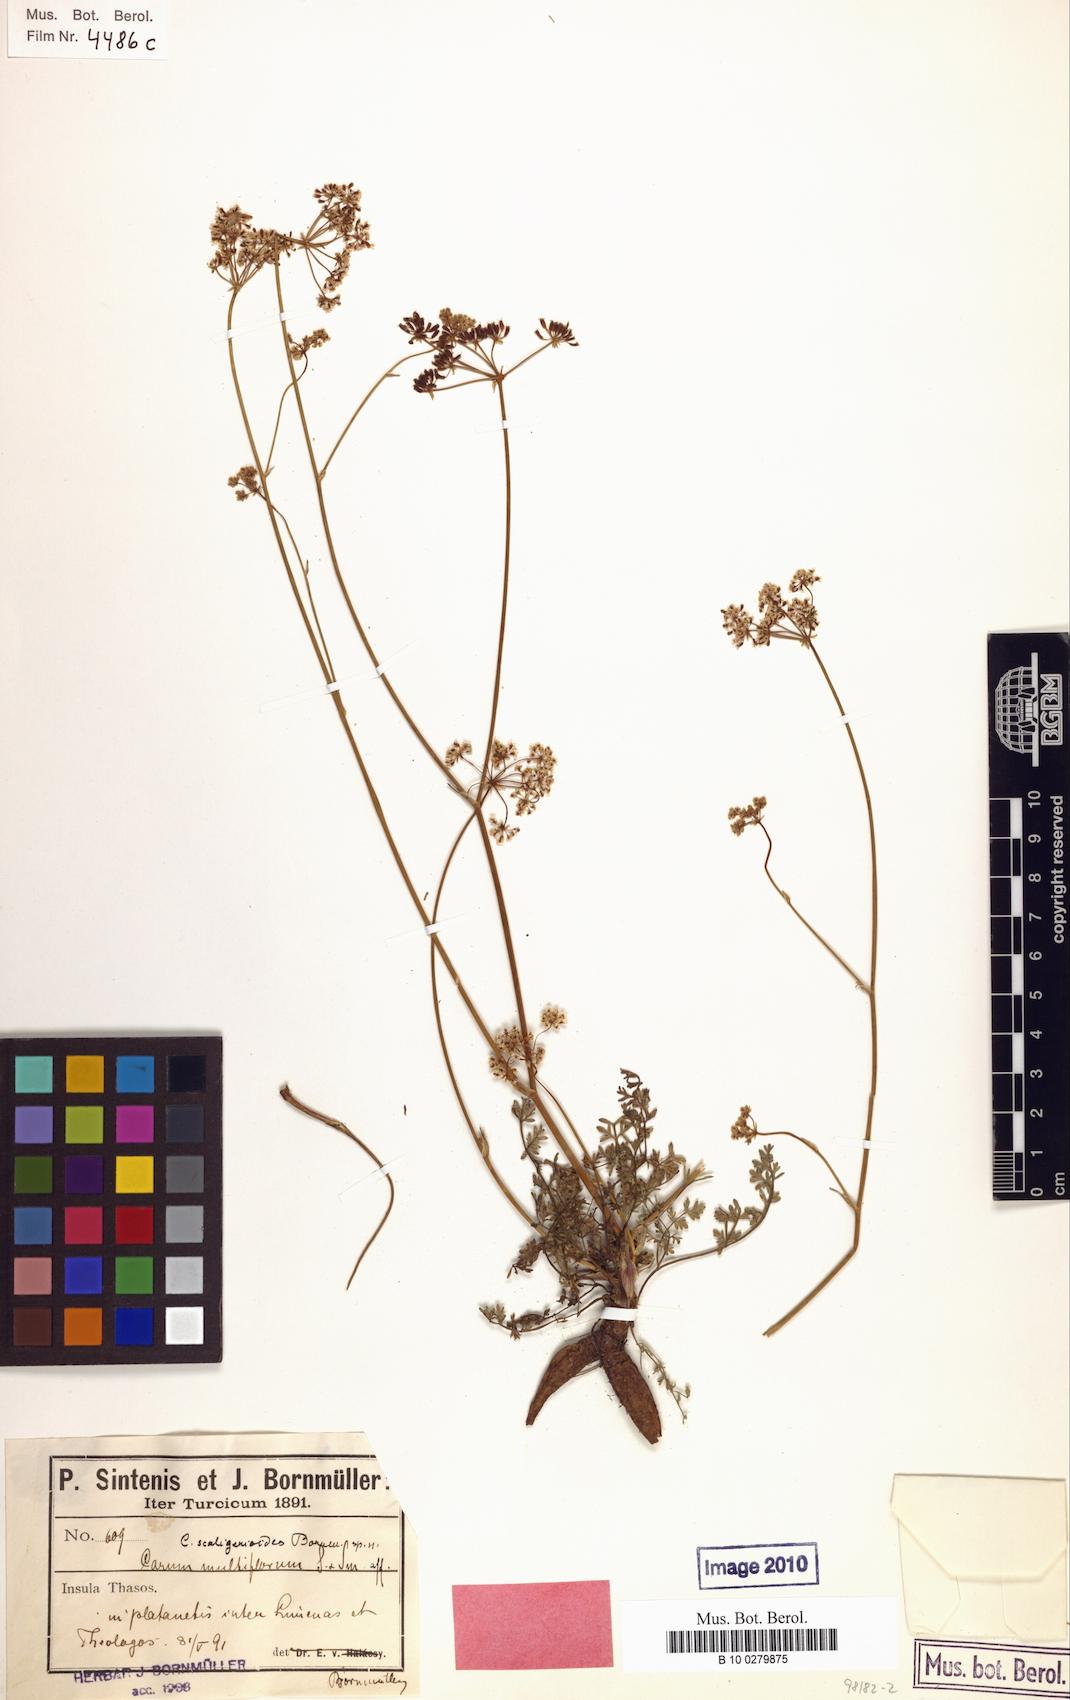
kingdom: Plantae
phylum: Tracheophyta
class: Magnoliopsida
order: Apiales
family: Apiaceae
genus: Hellenocarum
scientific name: Hellenocarum strictum
